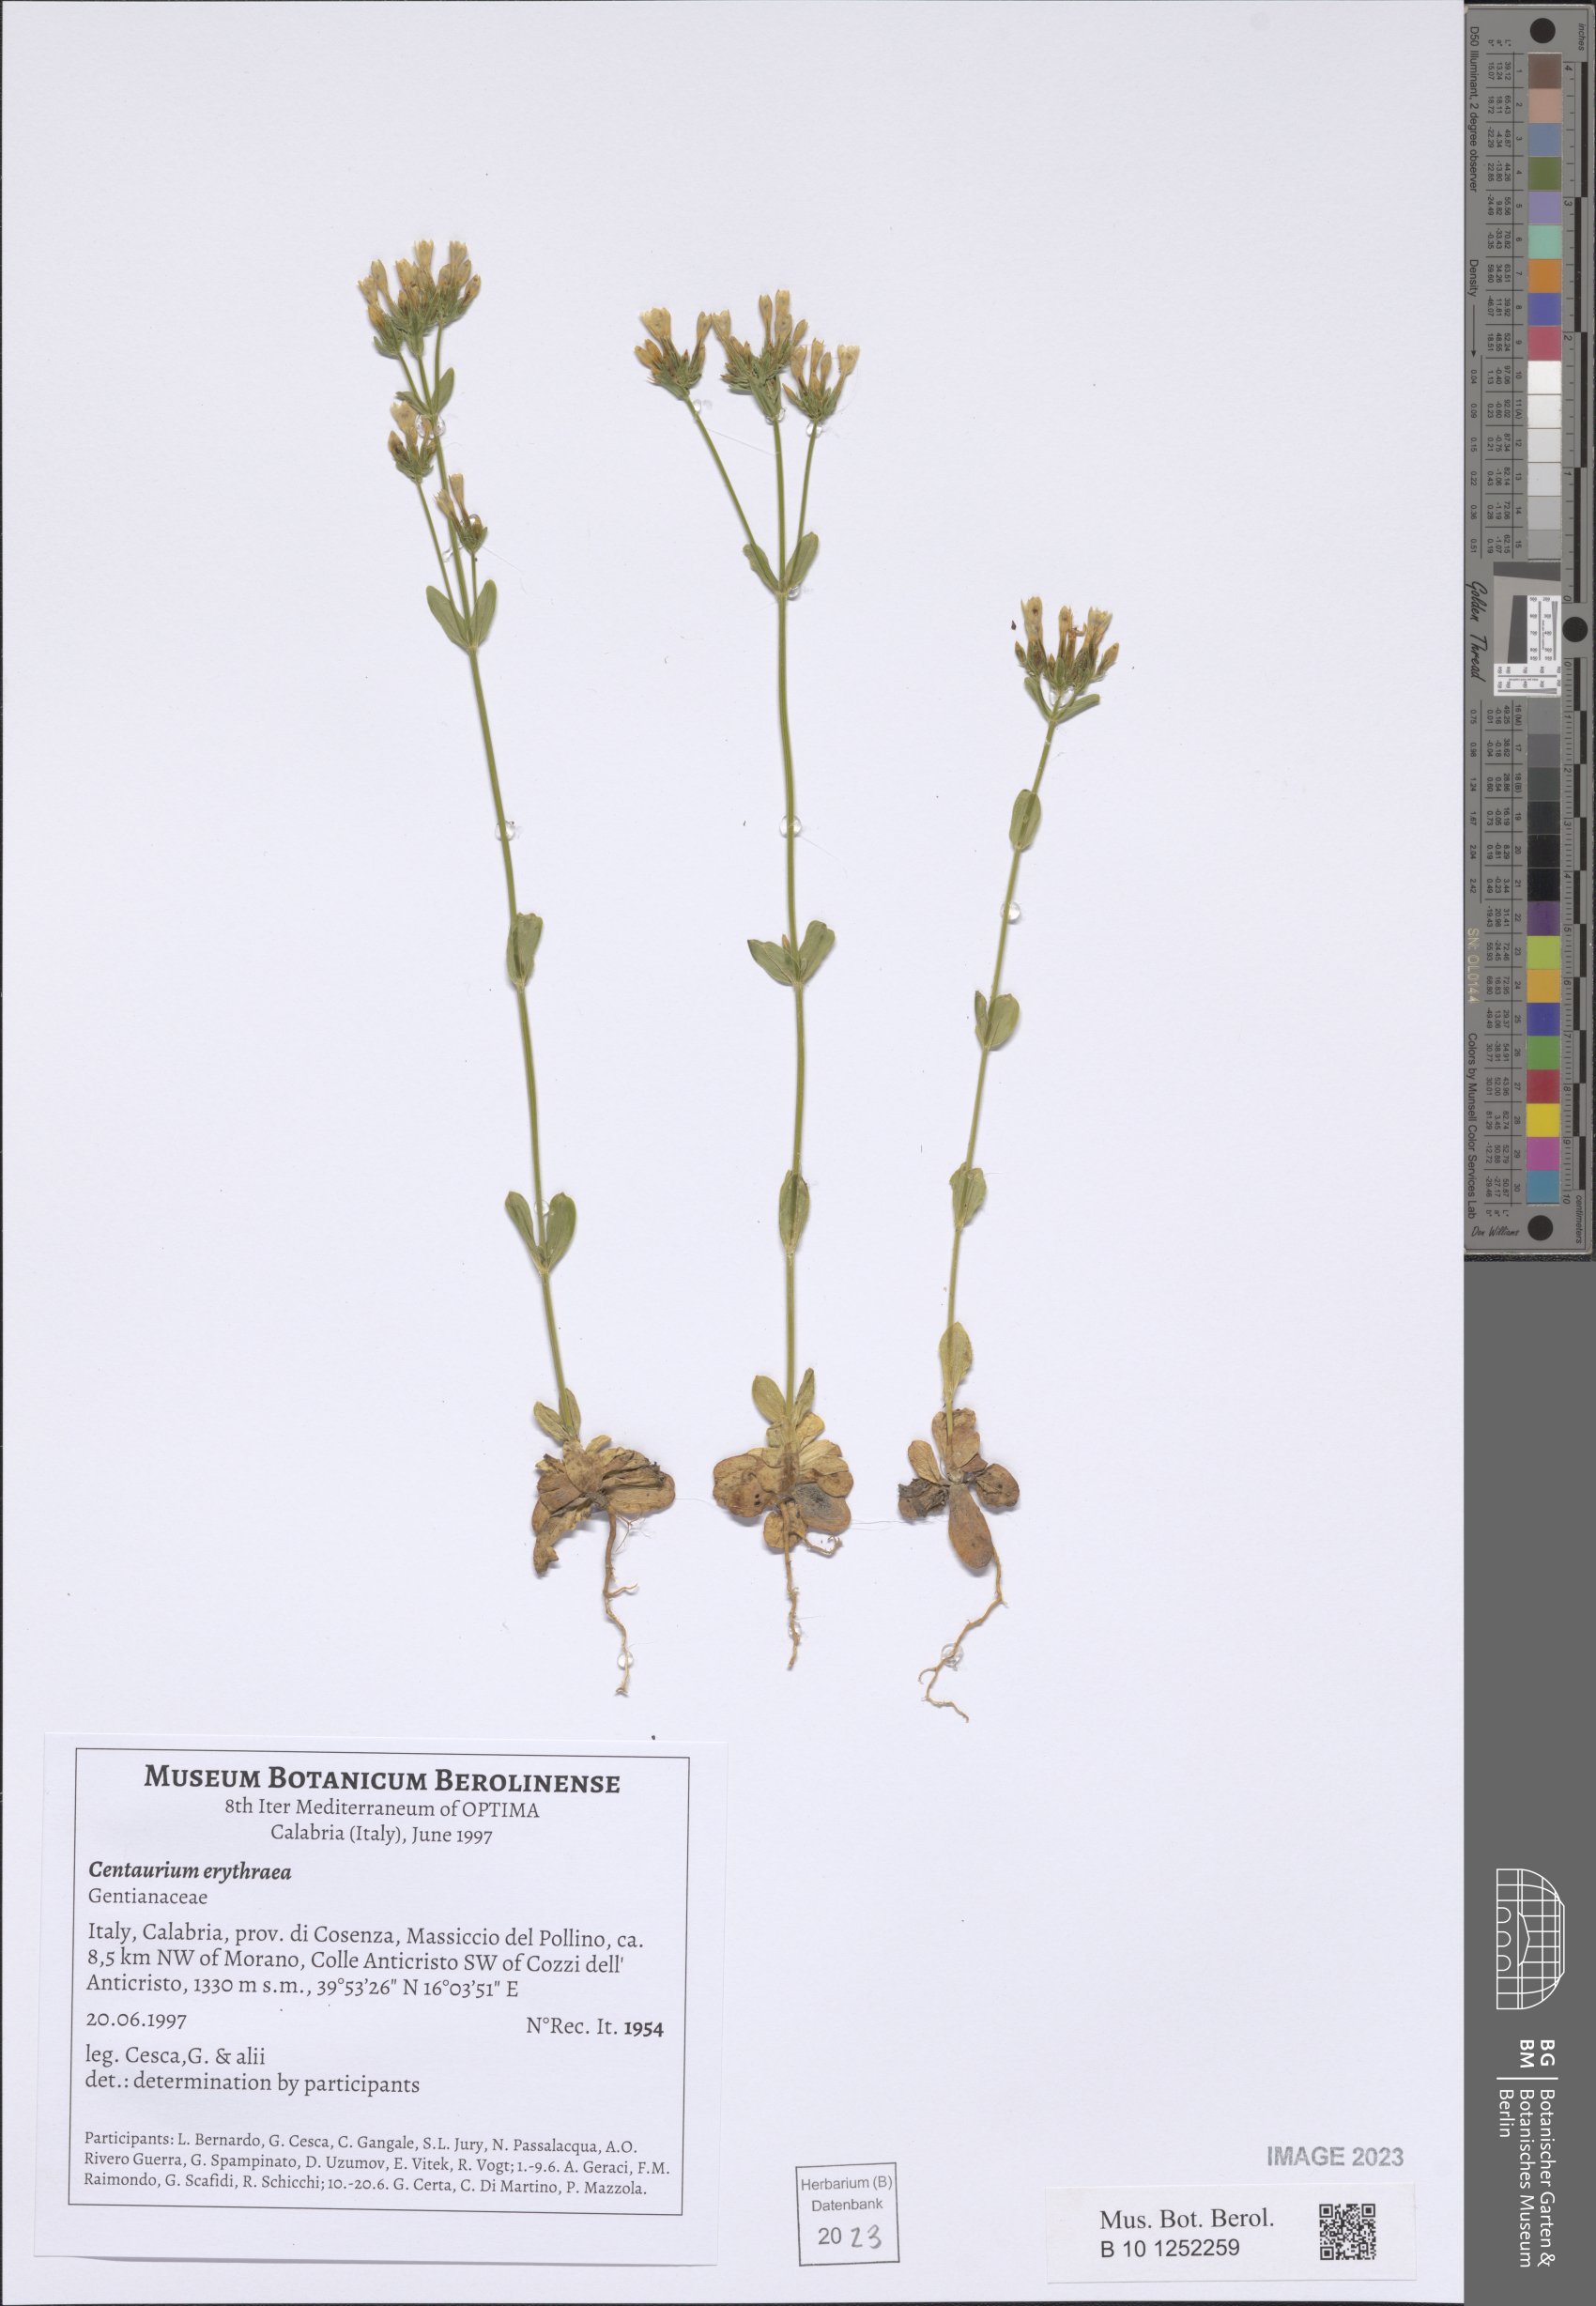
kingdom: Plantae
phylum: Tracheophyta
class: Magnoliopsida
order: Gentianales
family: Gentianaceae
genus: Centaurium
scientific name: Centaurium erythraea
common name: Common centaury
